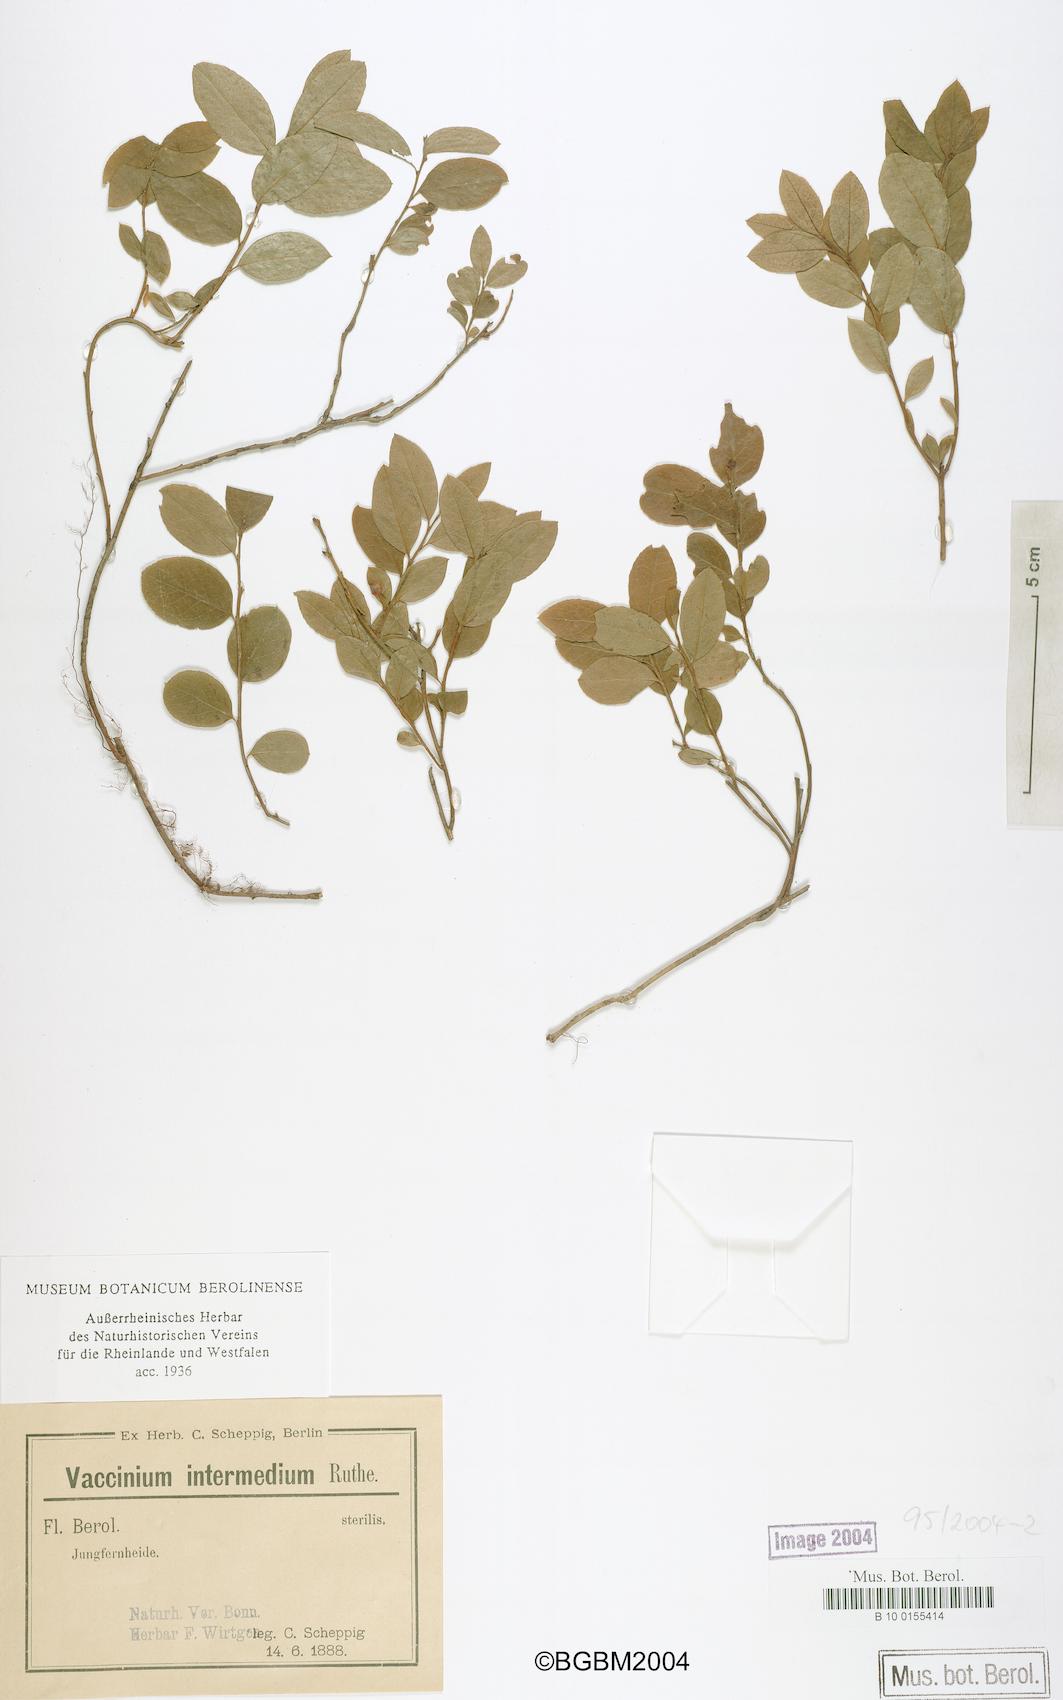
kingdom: Plantae
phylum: Tracheophyta
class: Magnoliopsida
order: Ericales
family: Ericaceae
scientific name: Ericaceae
